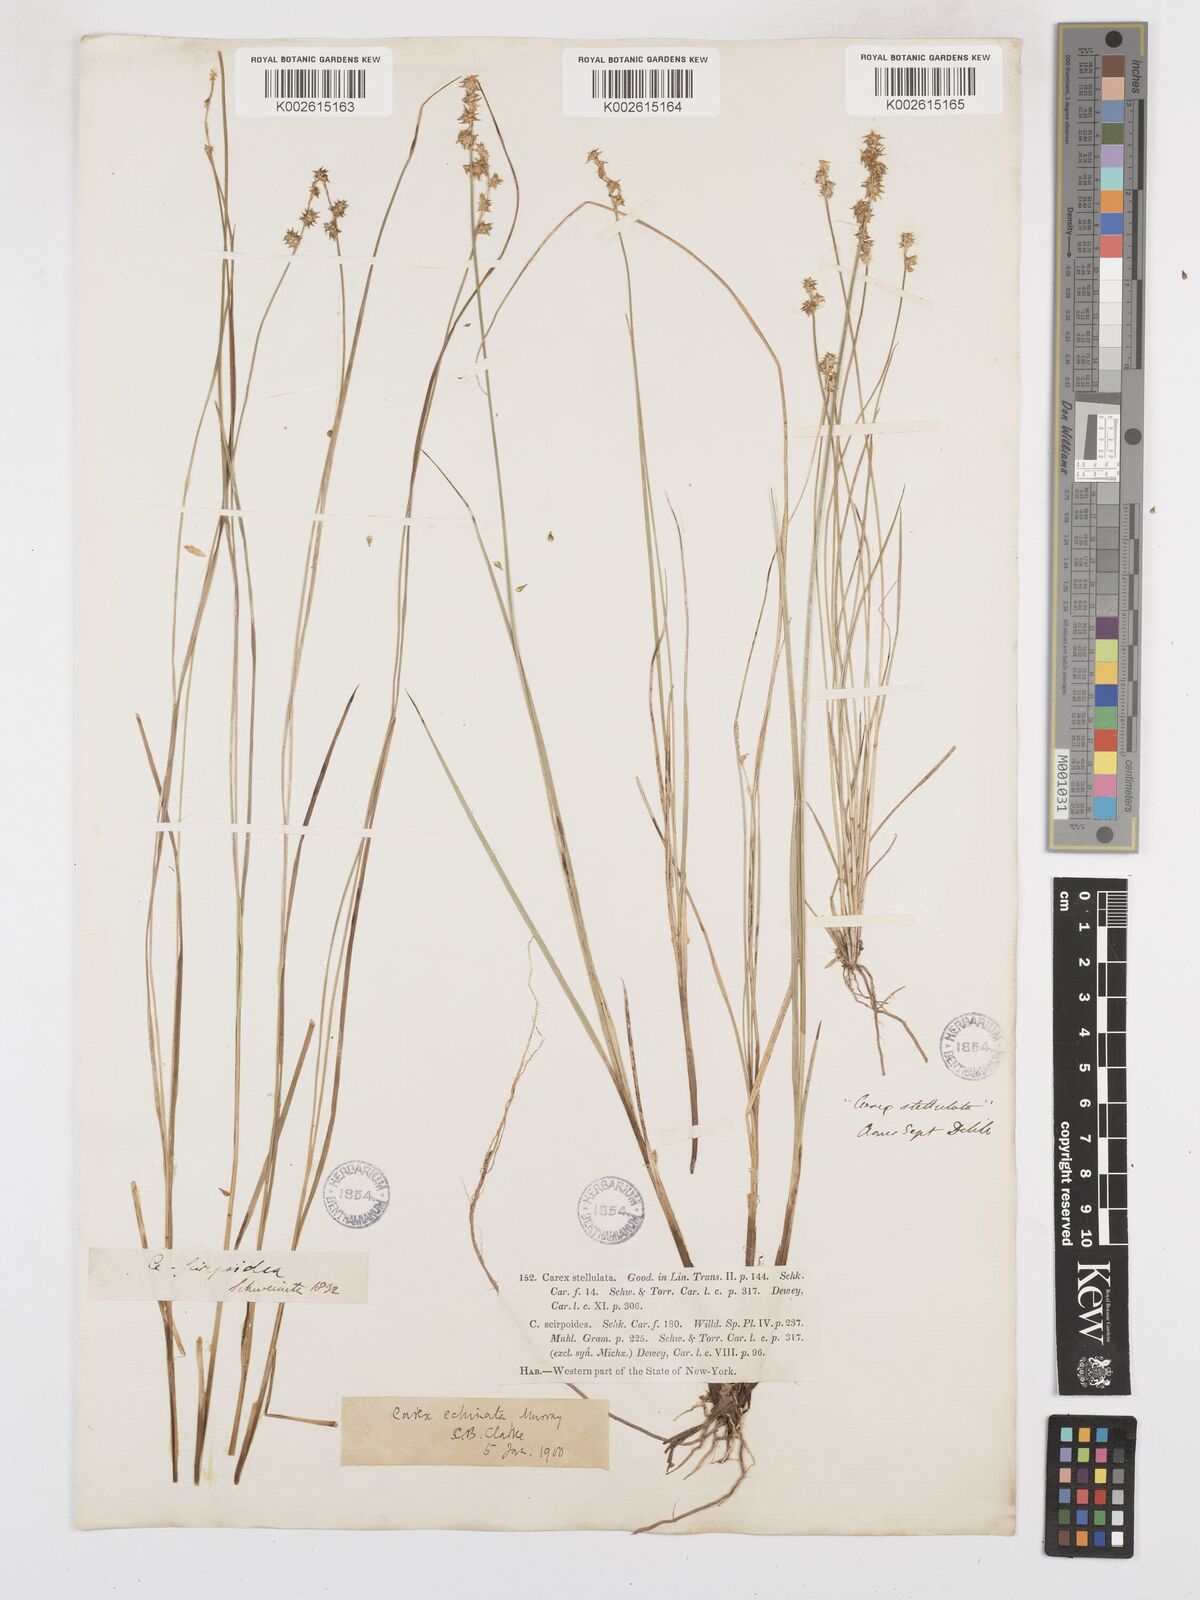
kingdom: Plantae
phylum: Tracheophyta
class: Liliopsida
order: Poales
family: Cyperaceae
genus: Carex
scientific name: Carex echinata
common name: Star sedge
